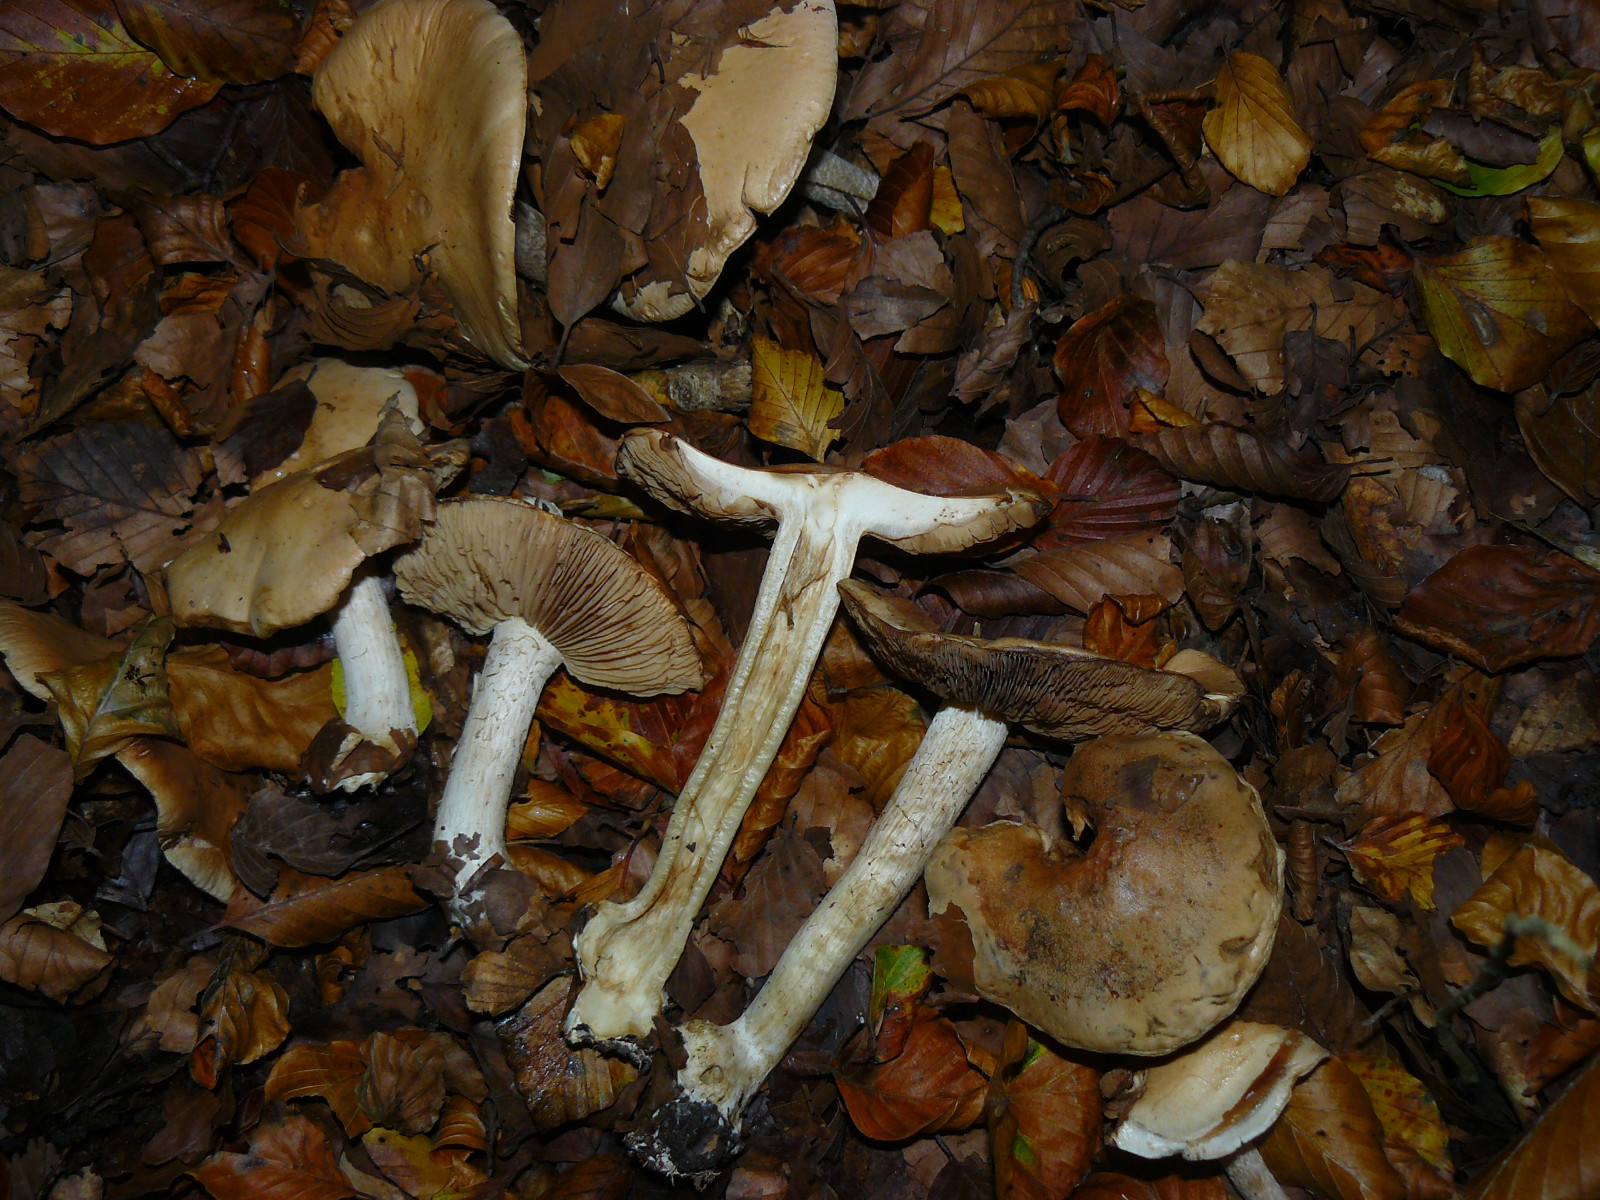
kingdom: Fungi
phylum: Basidiomycota
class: Agaricomycetes
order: Agaricales
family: Hymenogastraceae
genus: Hebeloma
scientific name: Hebeloma sinapizans
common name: ræddike-tåreblad
